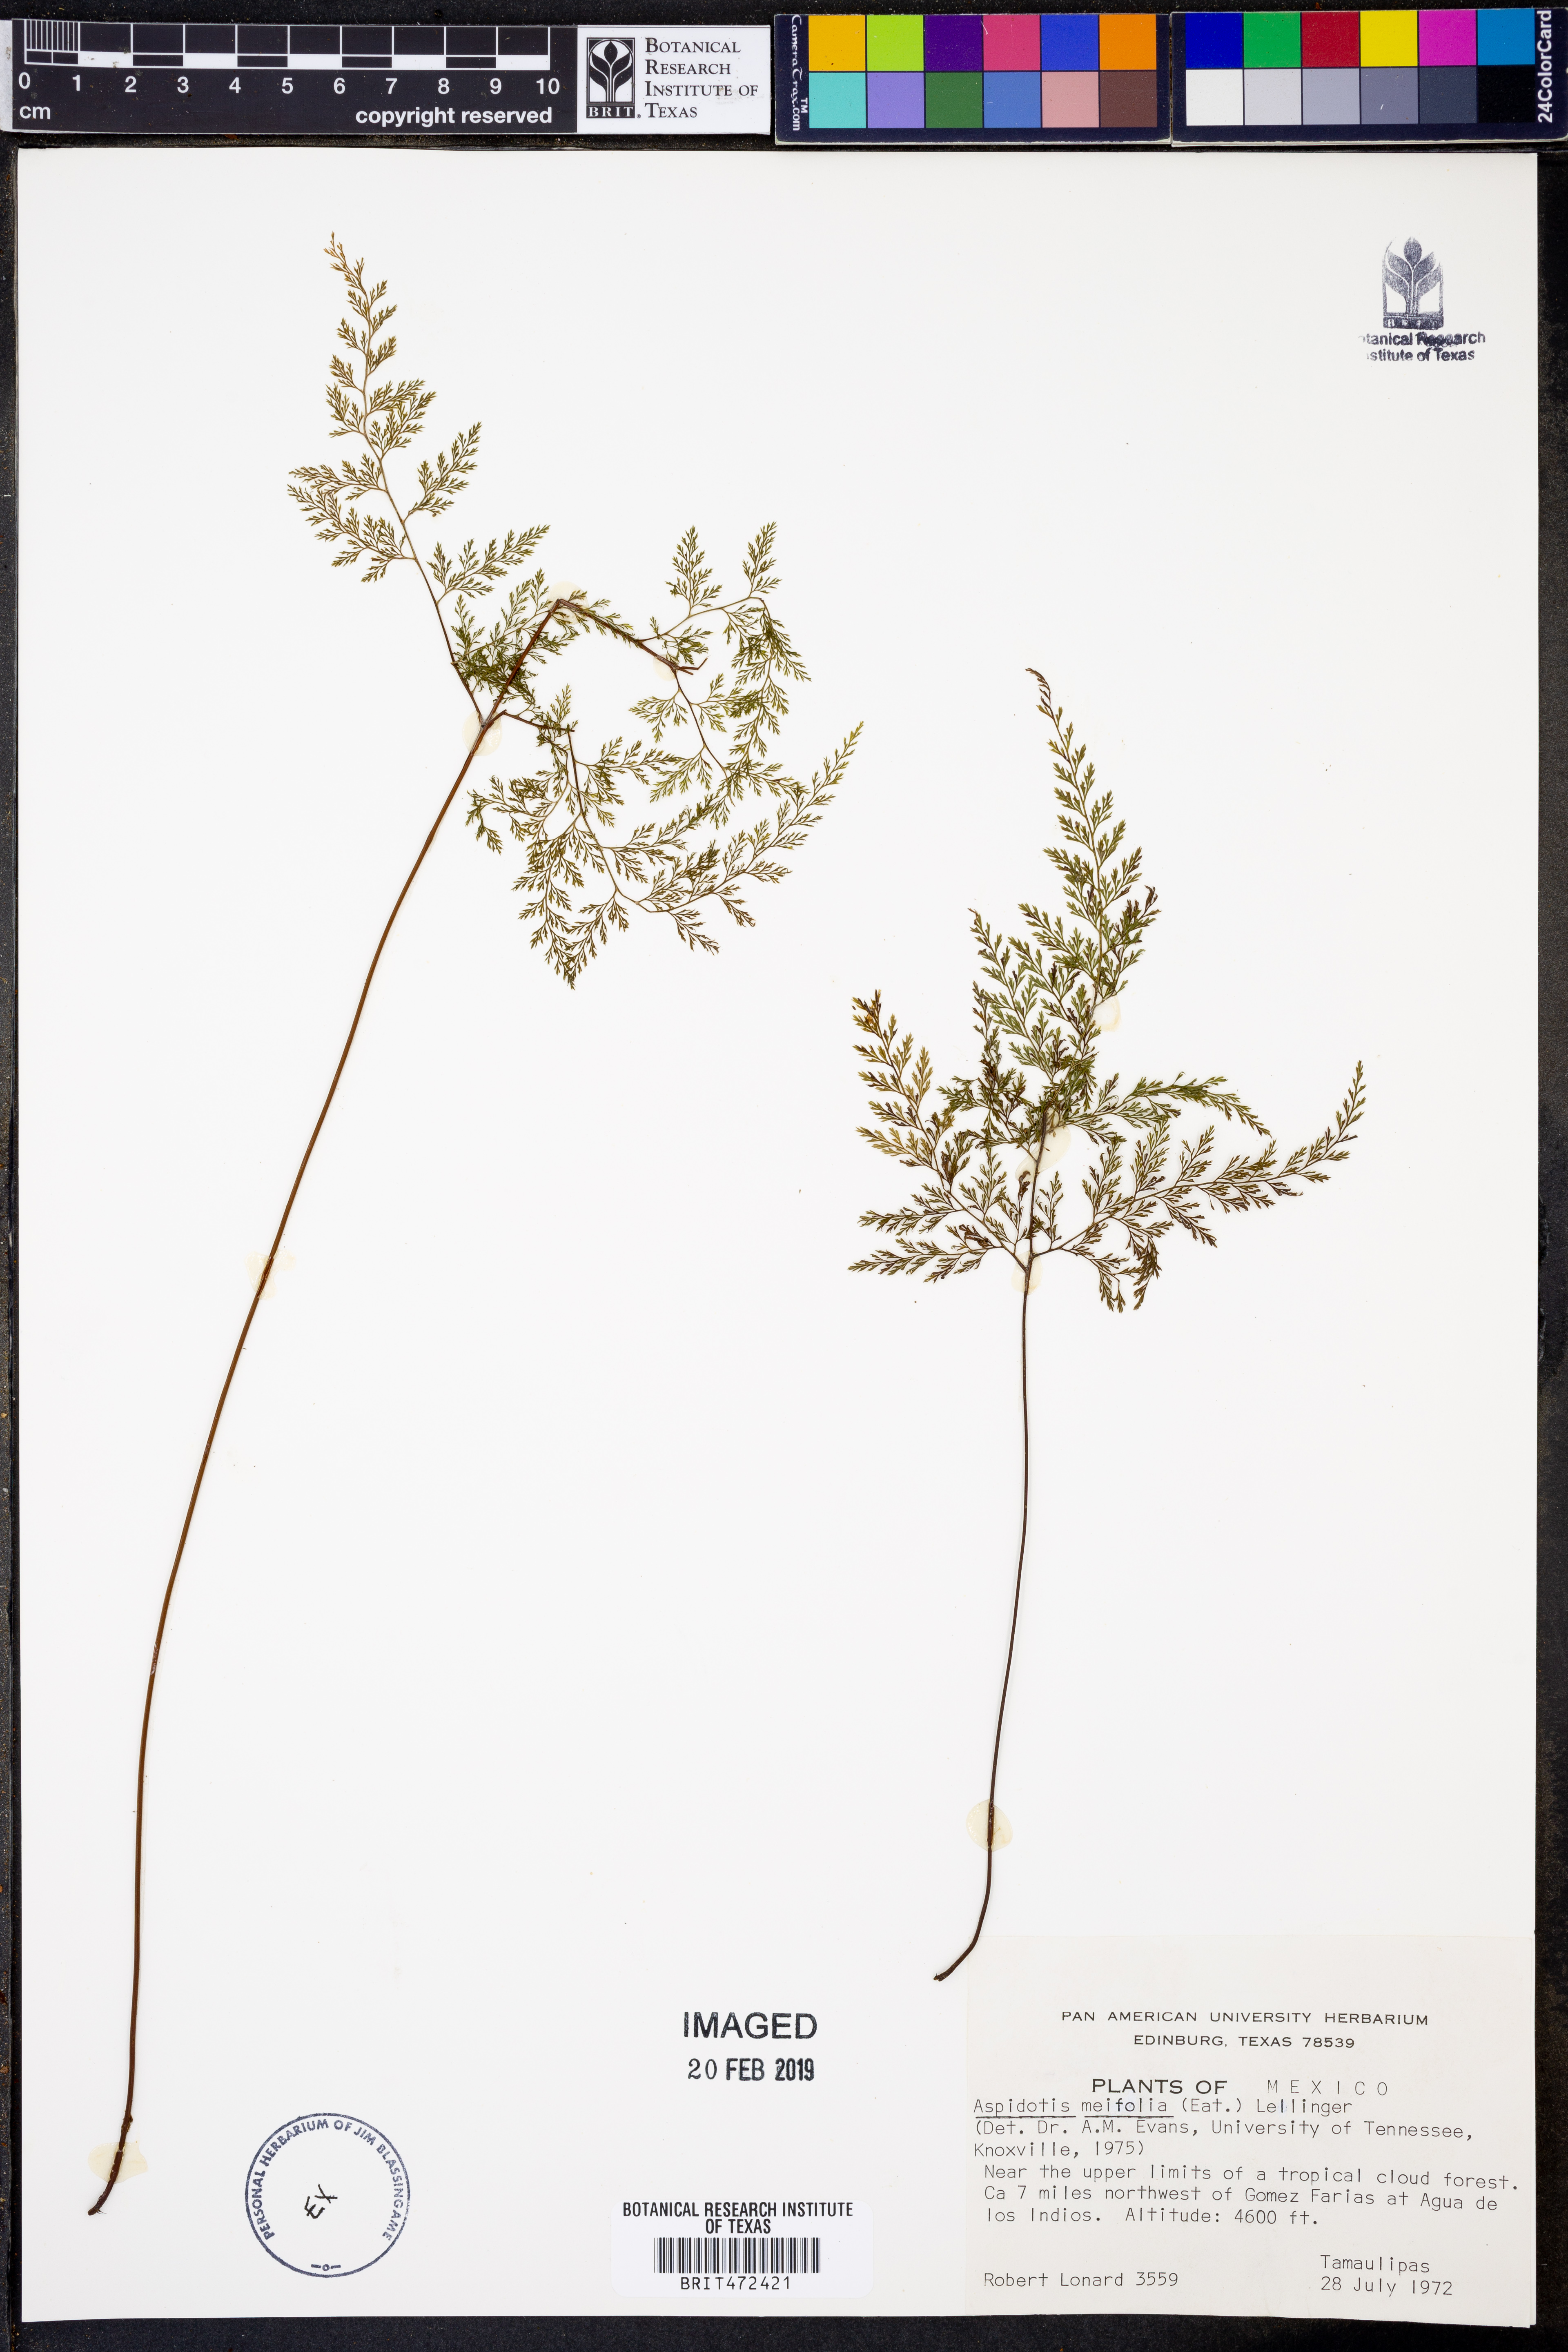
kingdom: Plantae
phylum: Tracheophyta
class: Polypodiopsida
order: Polypodiales
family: Pteridaceae
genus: Aspidotis
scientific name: Aspidotis meifolia
